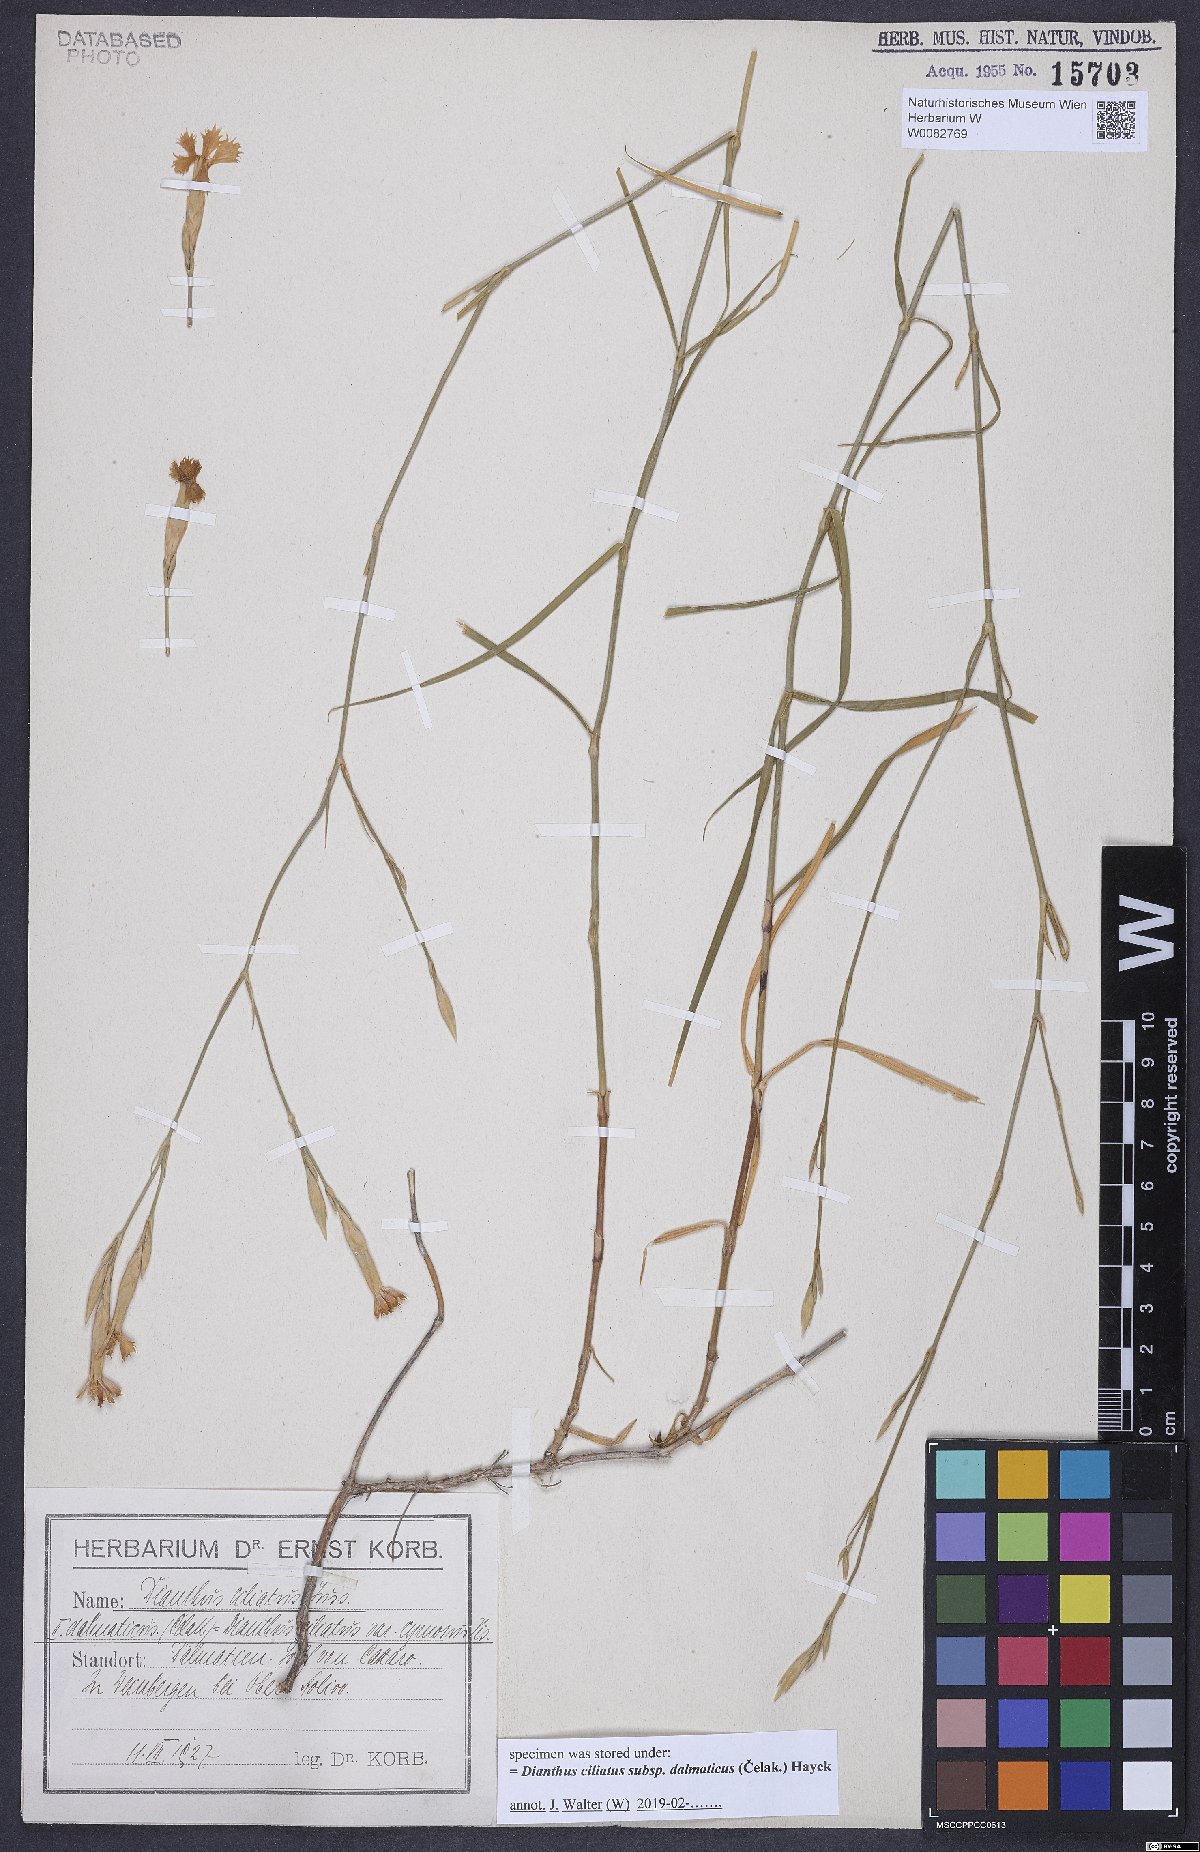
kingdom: Plantae
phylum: Tracheophyta
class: Magnoliopsida
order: Caryophyllales
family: Caryophyllaceae
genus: Dianthus
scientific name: Dianthus ciliatus
